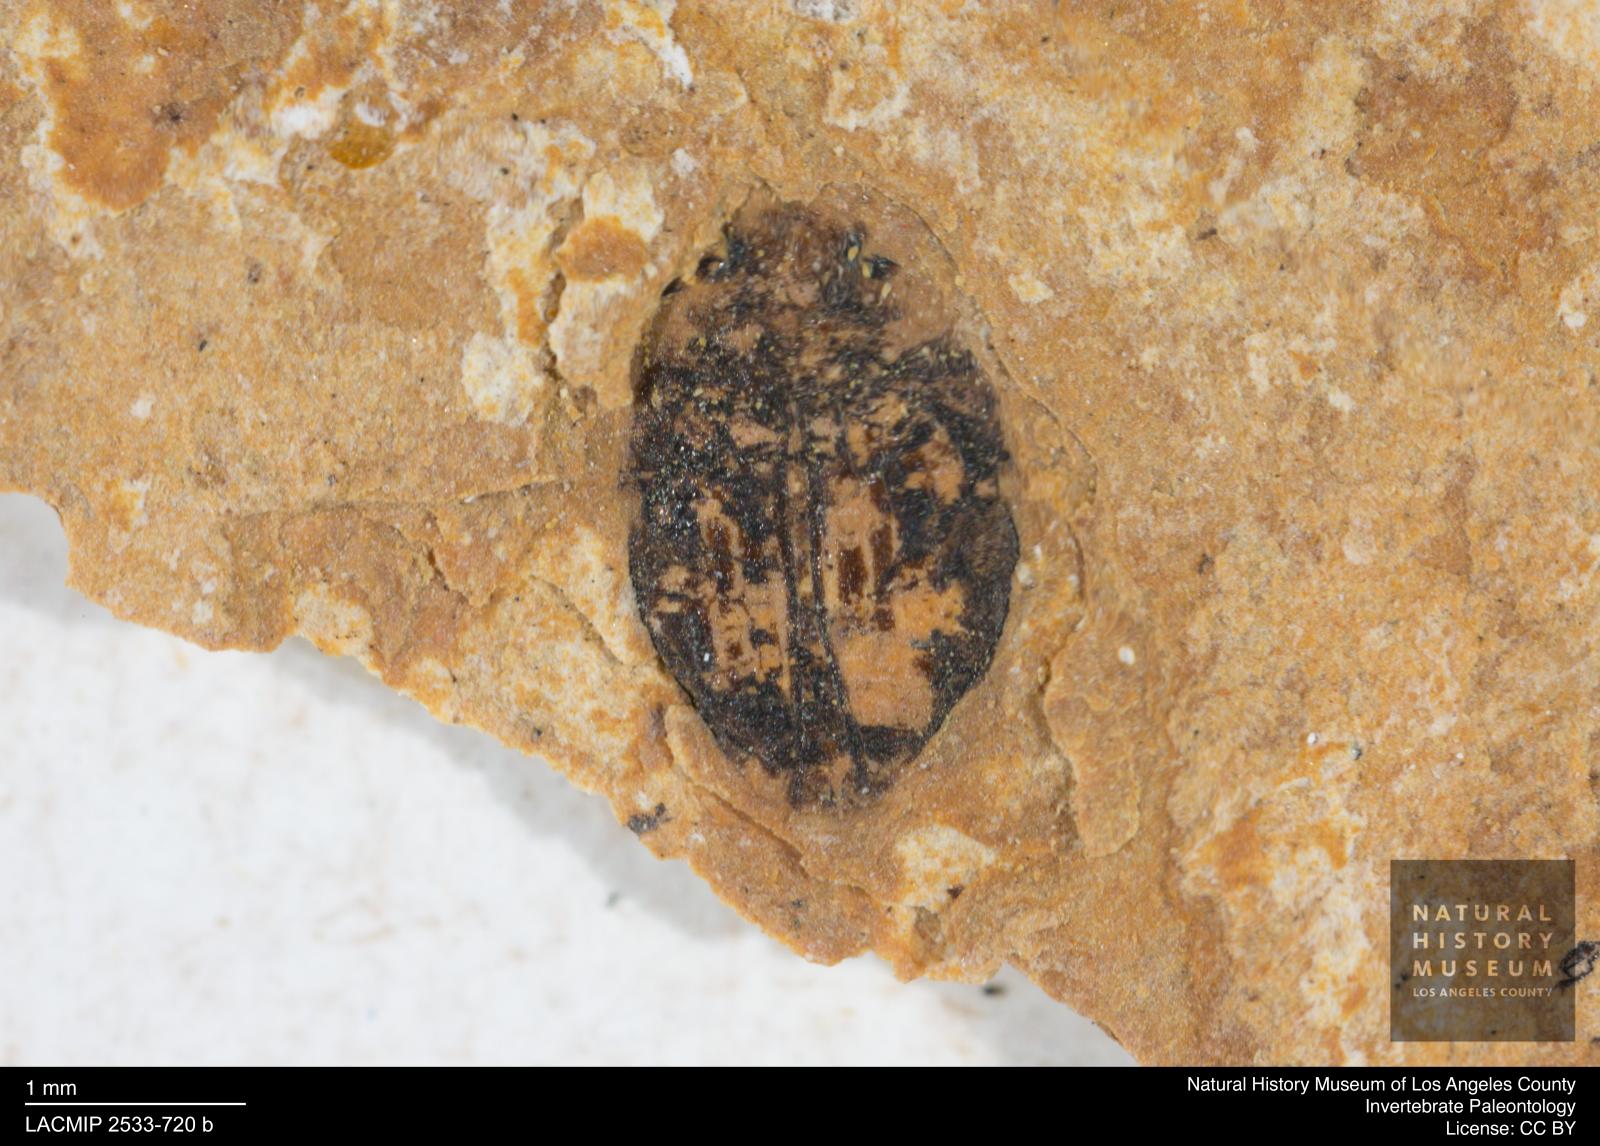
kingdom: Animalia
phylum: Arthropoda
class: Insecta
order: Coleoptera
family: Dytiscidae
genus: Oreodytes
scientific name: Oreodytes cryptolineatus
